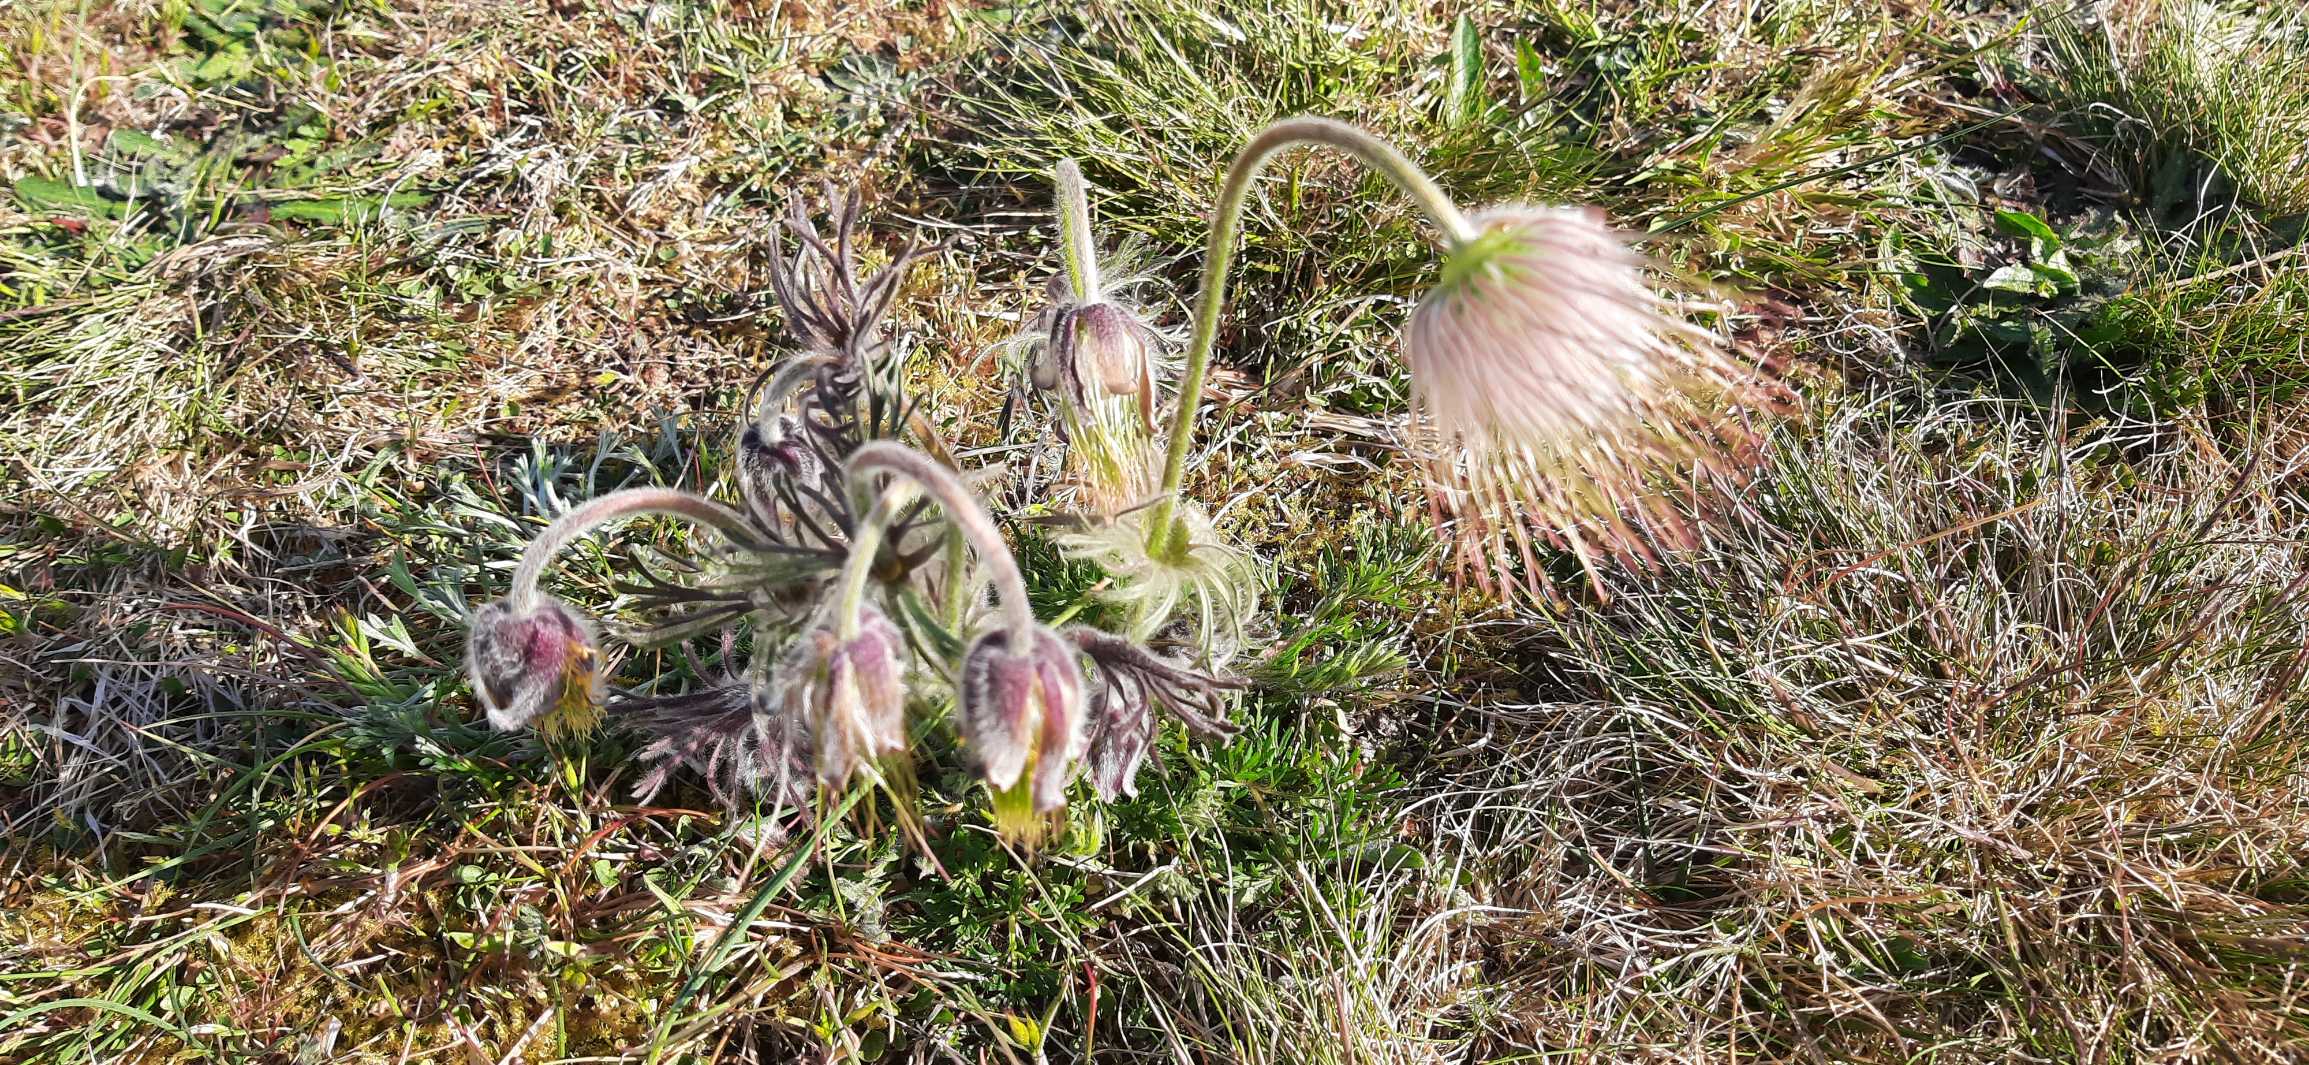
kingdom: Plantae
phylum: Tracheophyta
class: Magnoliopsida
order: Ranunculales
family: Ranunculaceae
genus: Pulsatilla
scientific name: Pulsatilla pratensis
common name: Nikkende kobjælde
